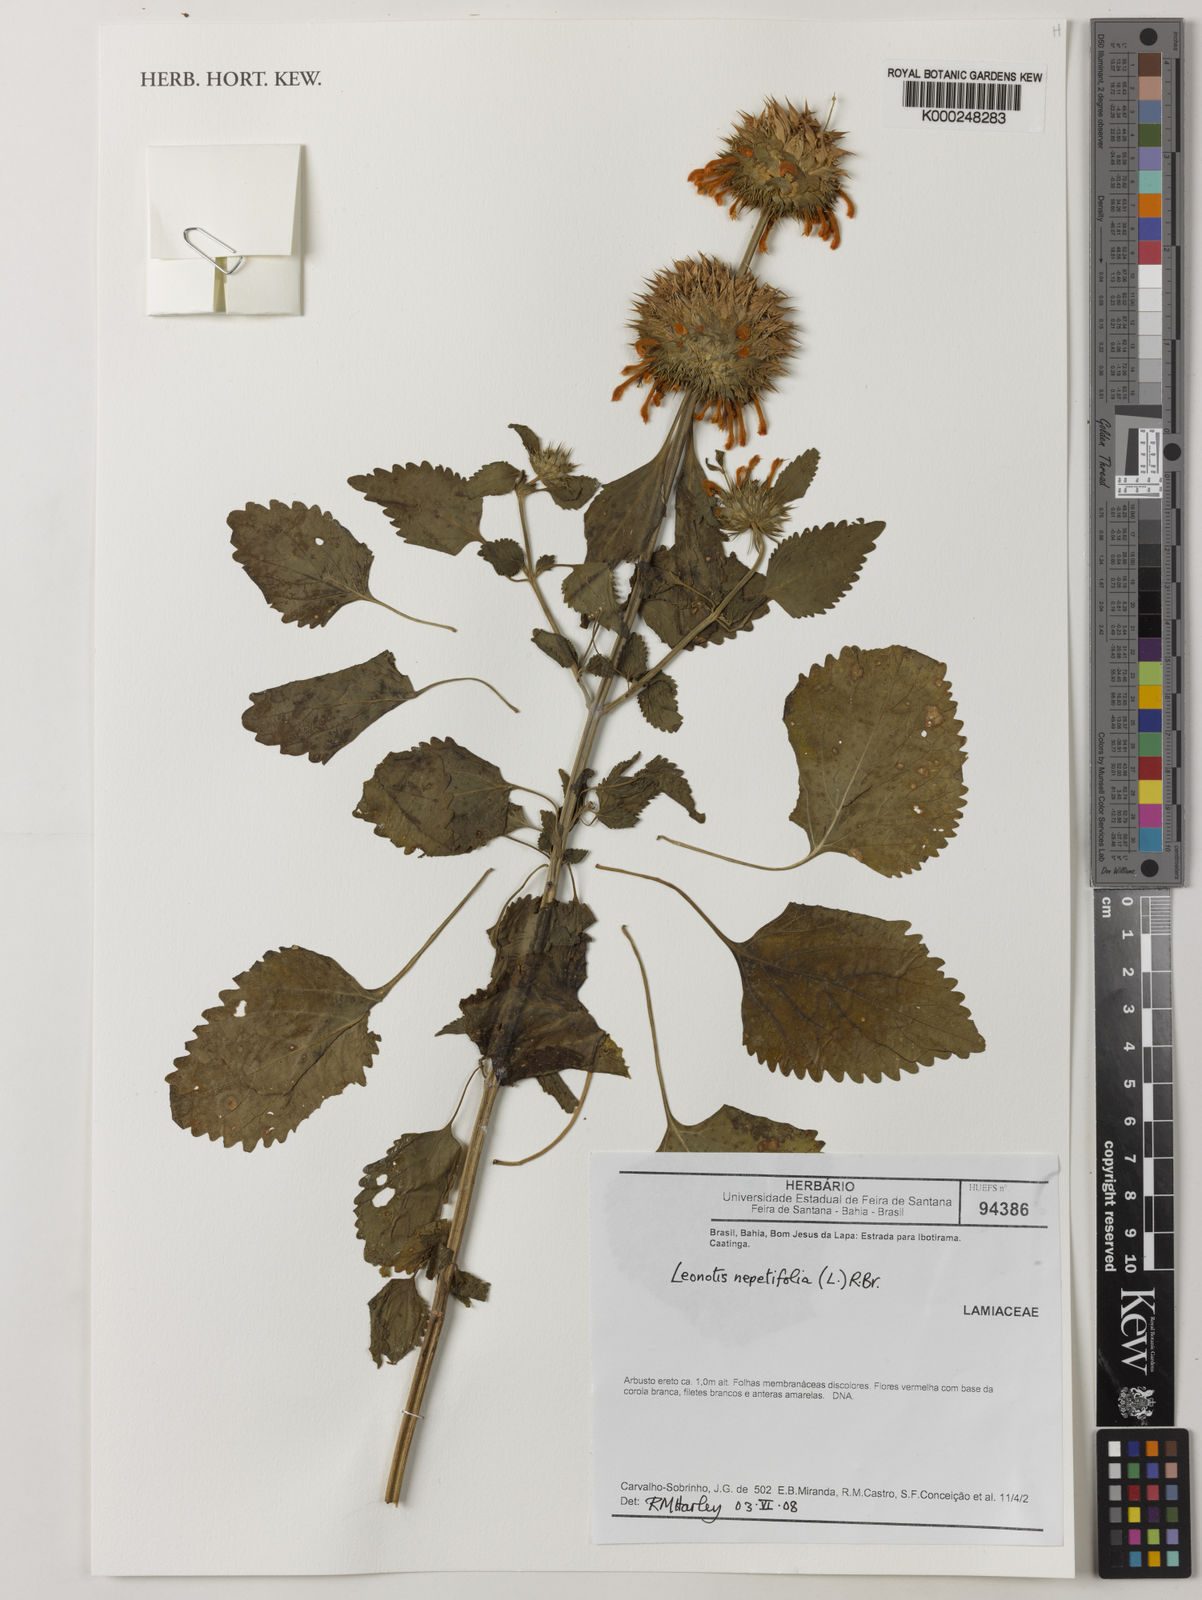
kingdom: Plantae
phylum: Tracheophyta
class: Magnoliopsida
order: Lamiales
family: Lamiaceae
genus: Leonotis
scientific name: Leonotis nepetifolia
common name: Christmas candlestick
